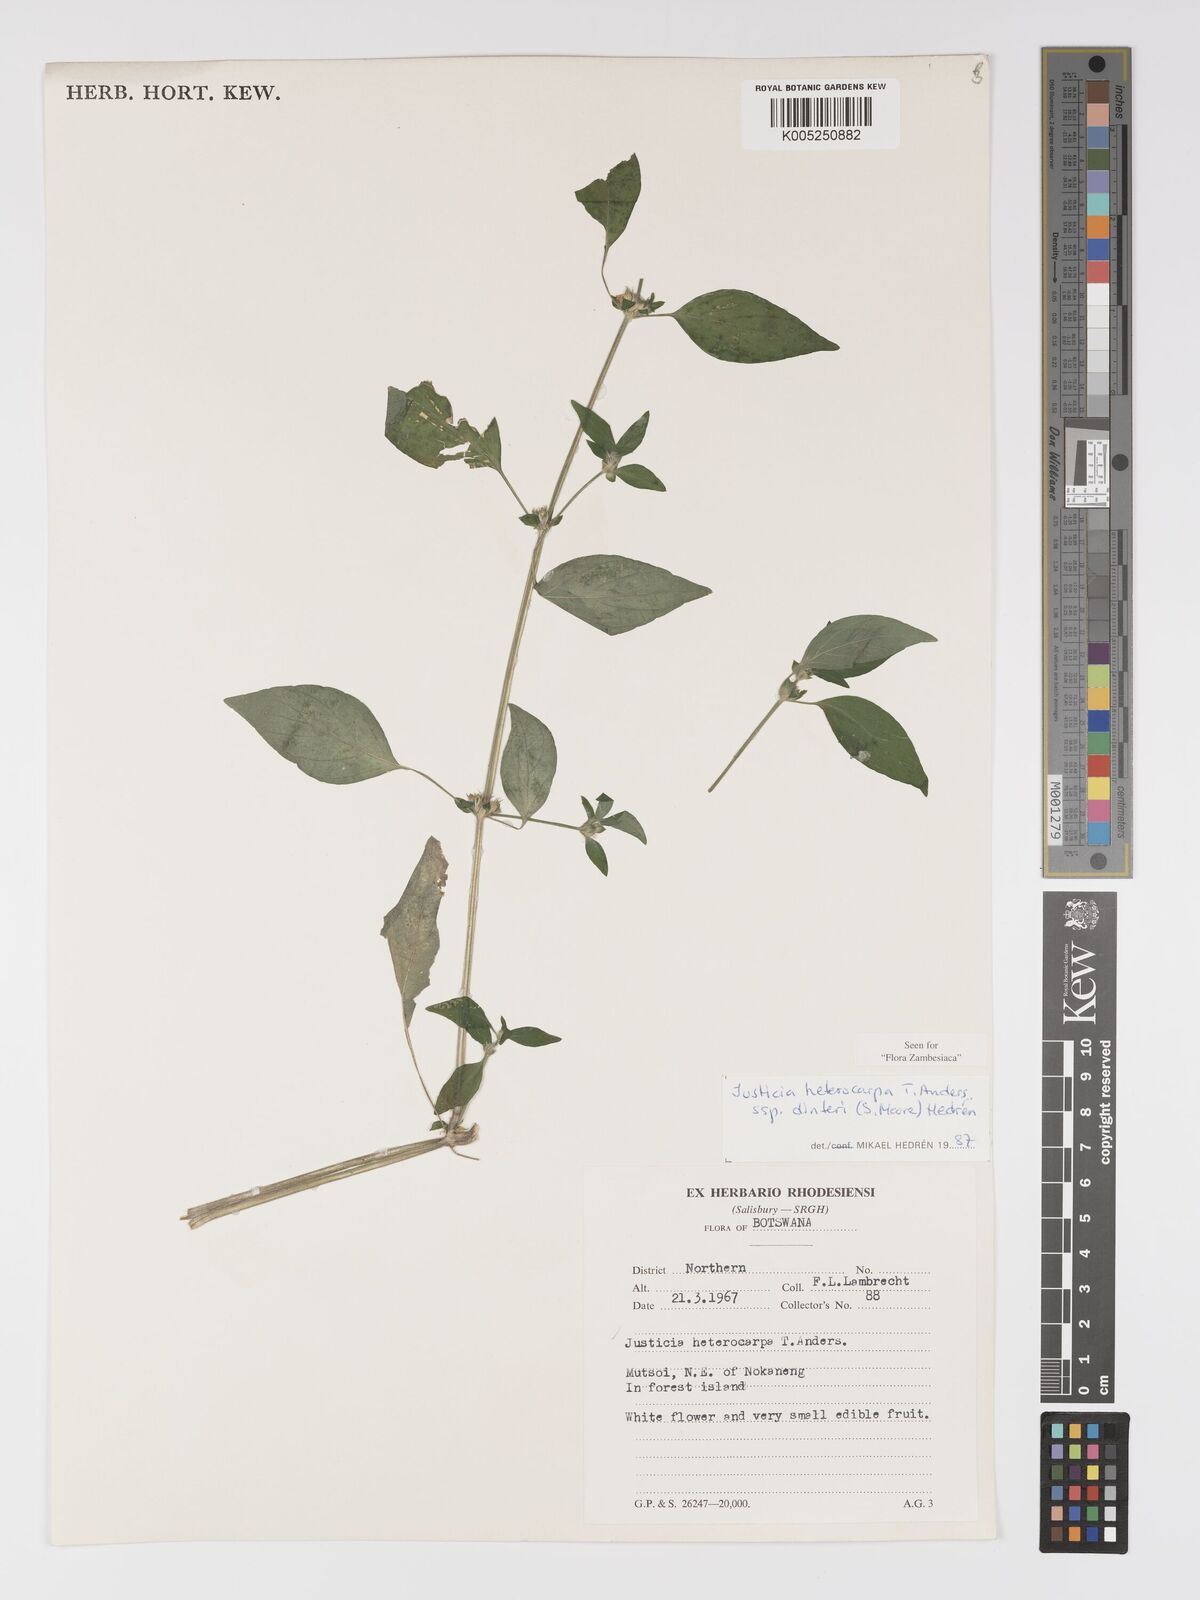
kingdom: Plantae
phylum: Tracheophyta
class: Magnoliopsida
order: Lamiales
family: Acanthaceae
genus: Justicia
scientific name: Justicia heterocarpa
